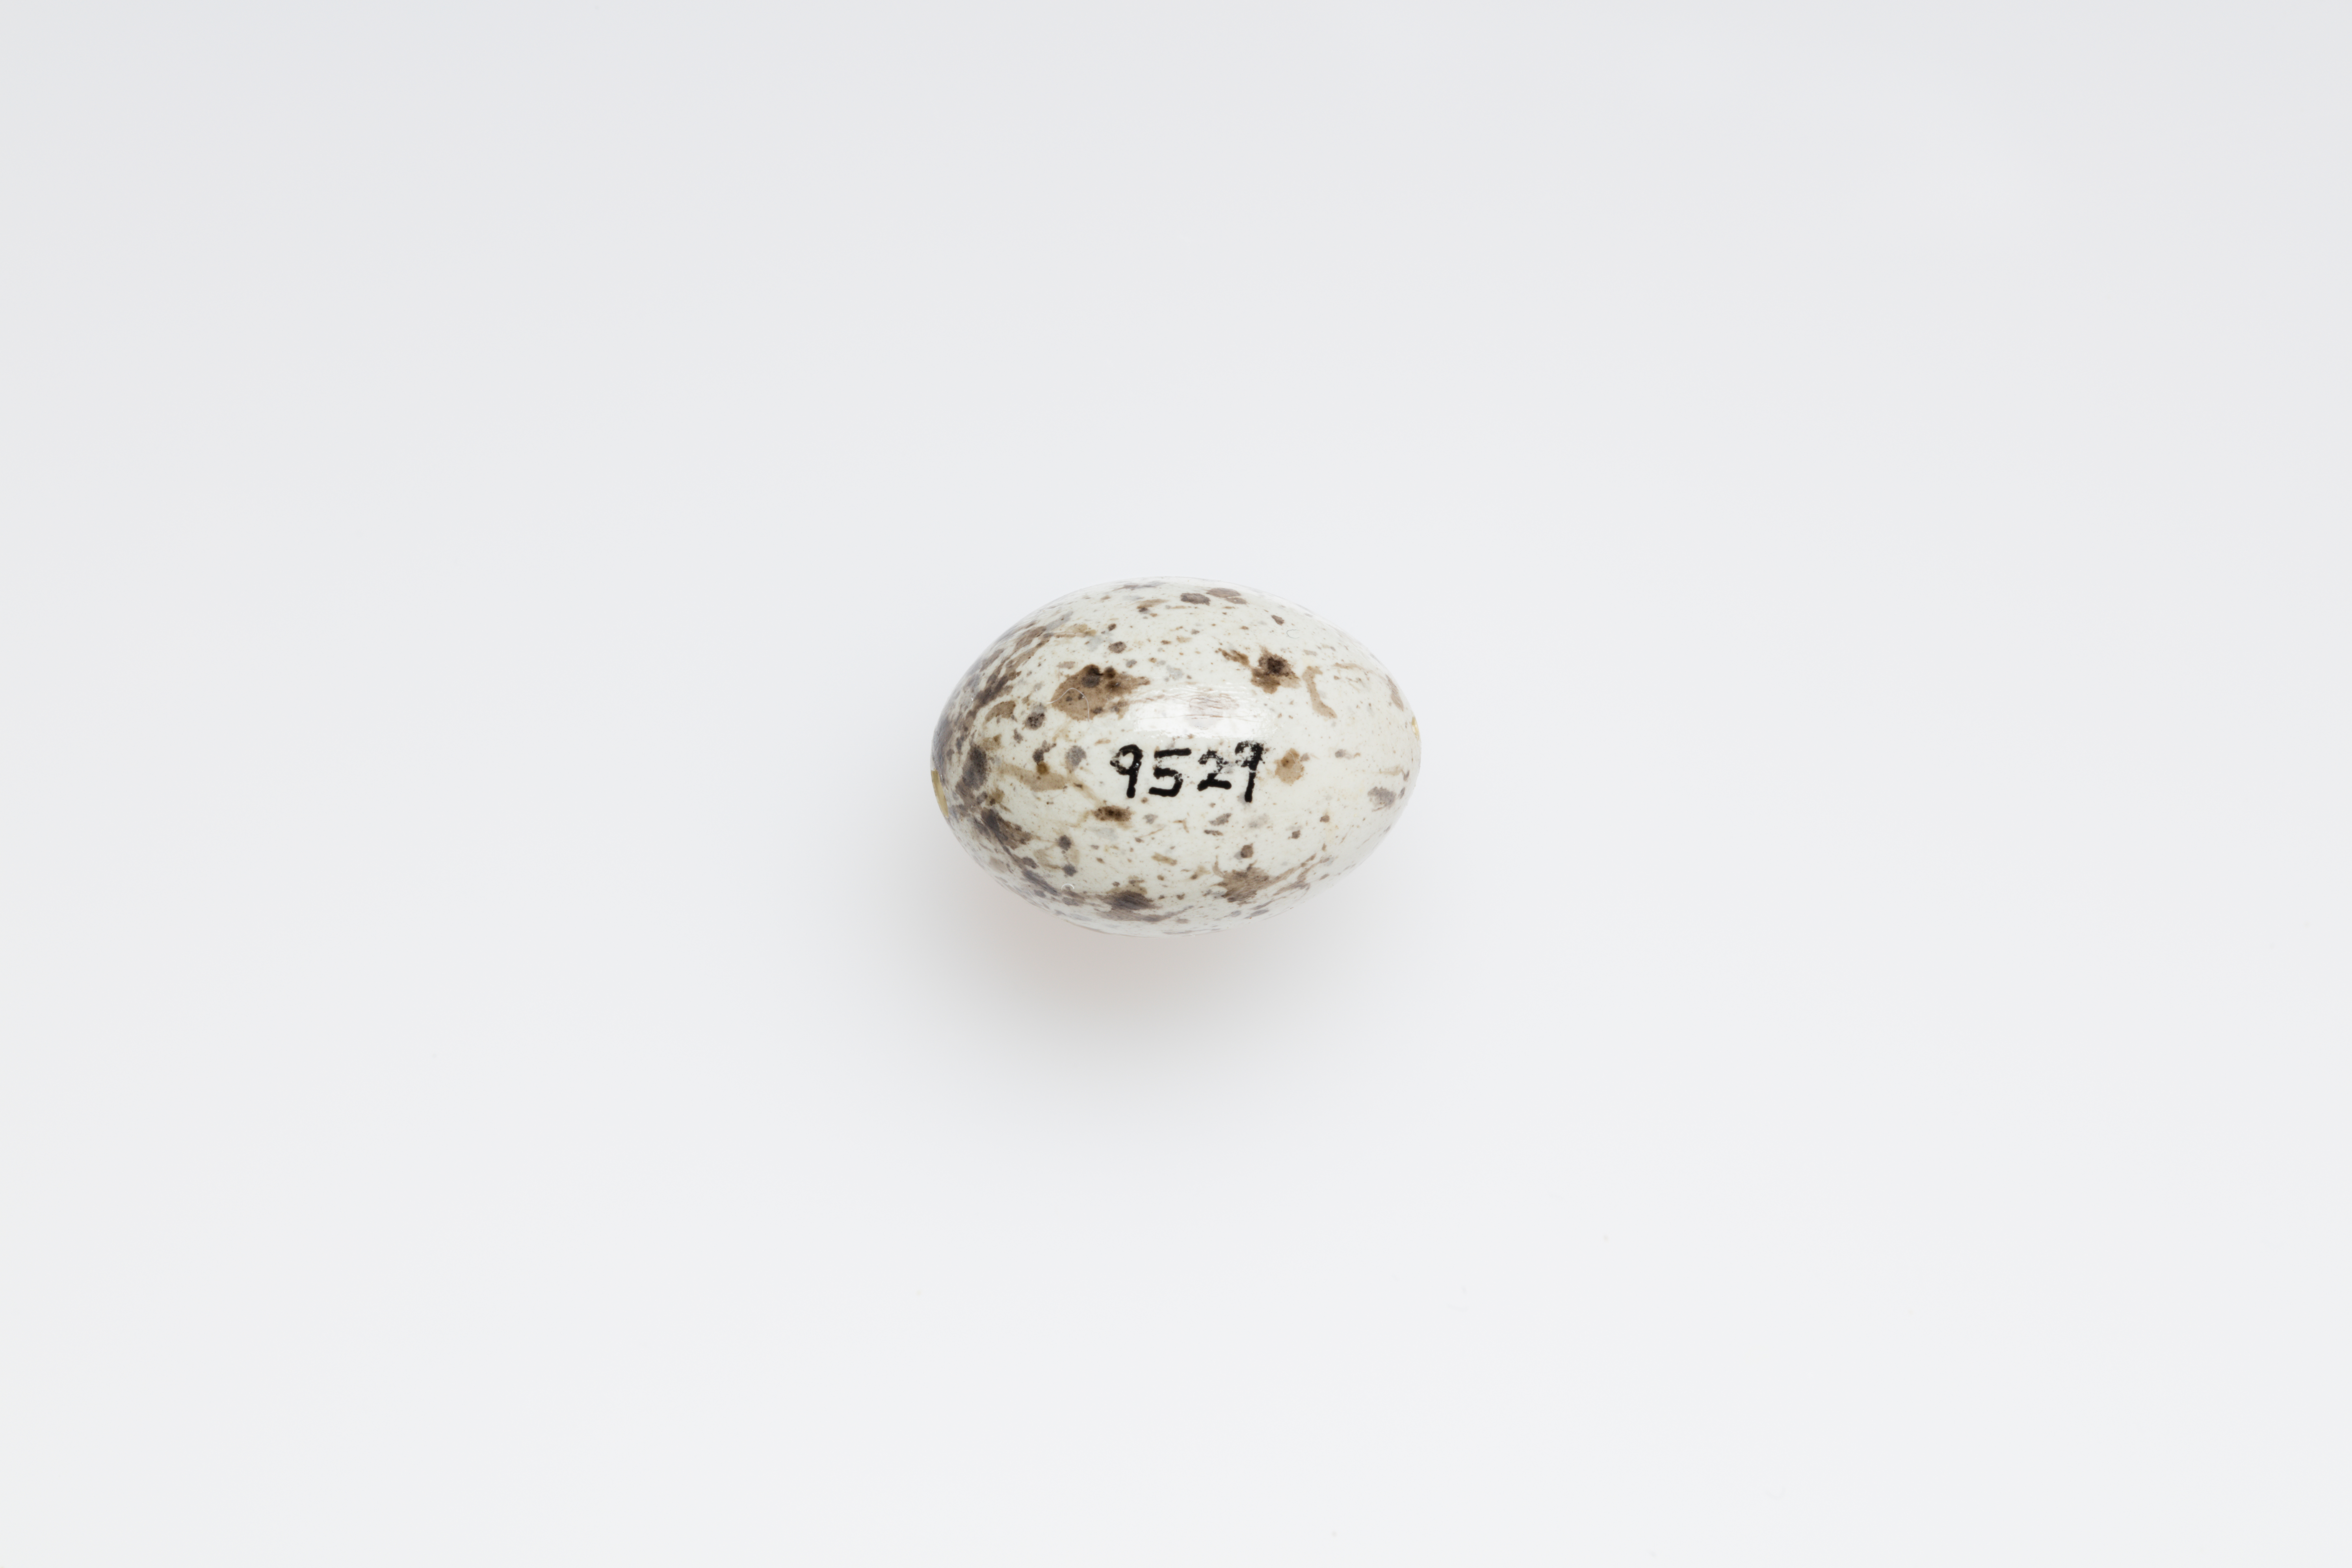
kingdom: Animalia
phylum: Chordata
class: Aves
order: Passeriformes
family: Passeridae
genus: Passer
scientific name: Passer domesticus
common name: House sparrow
